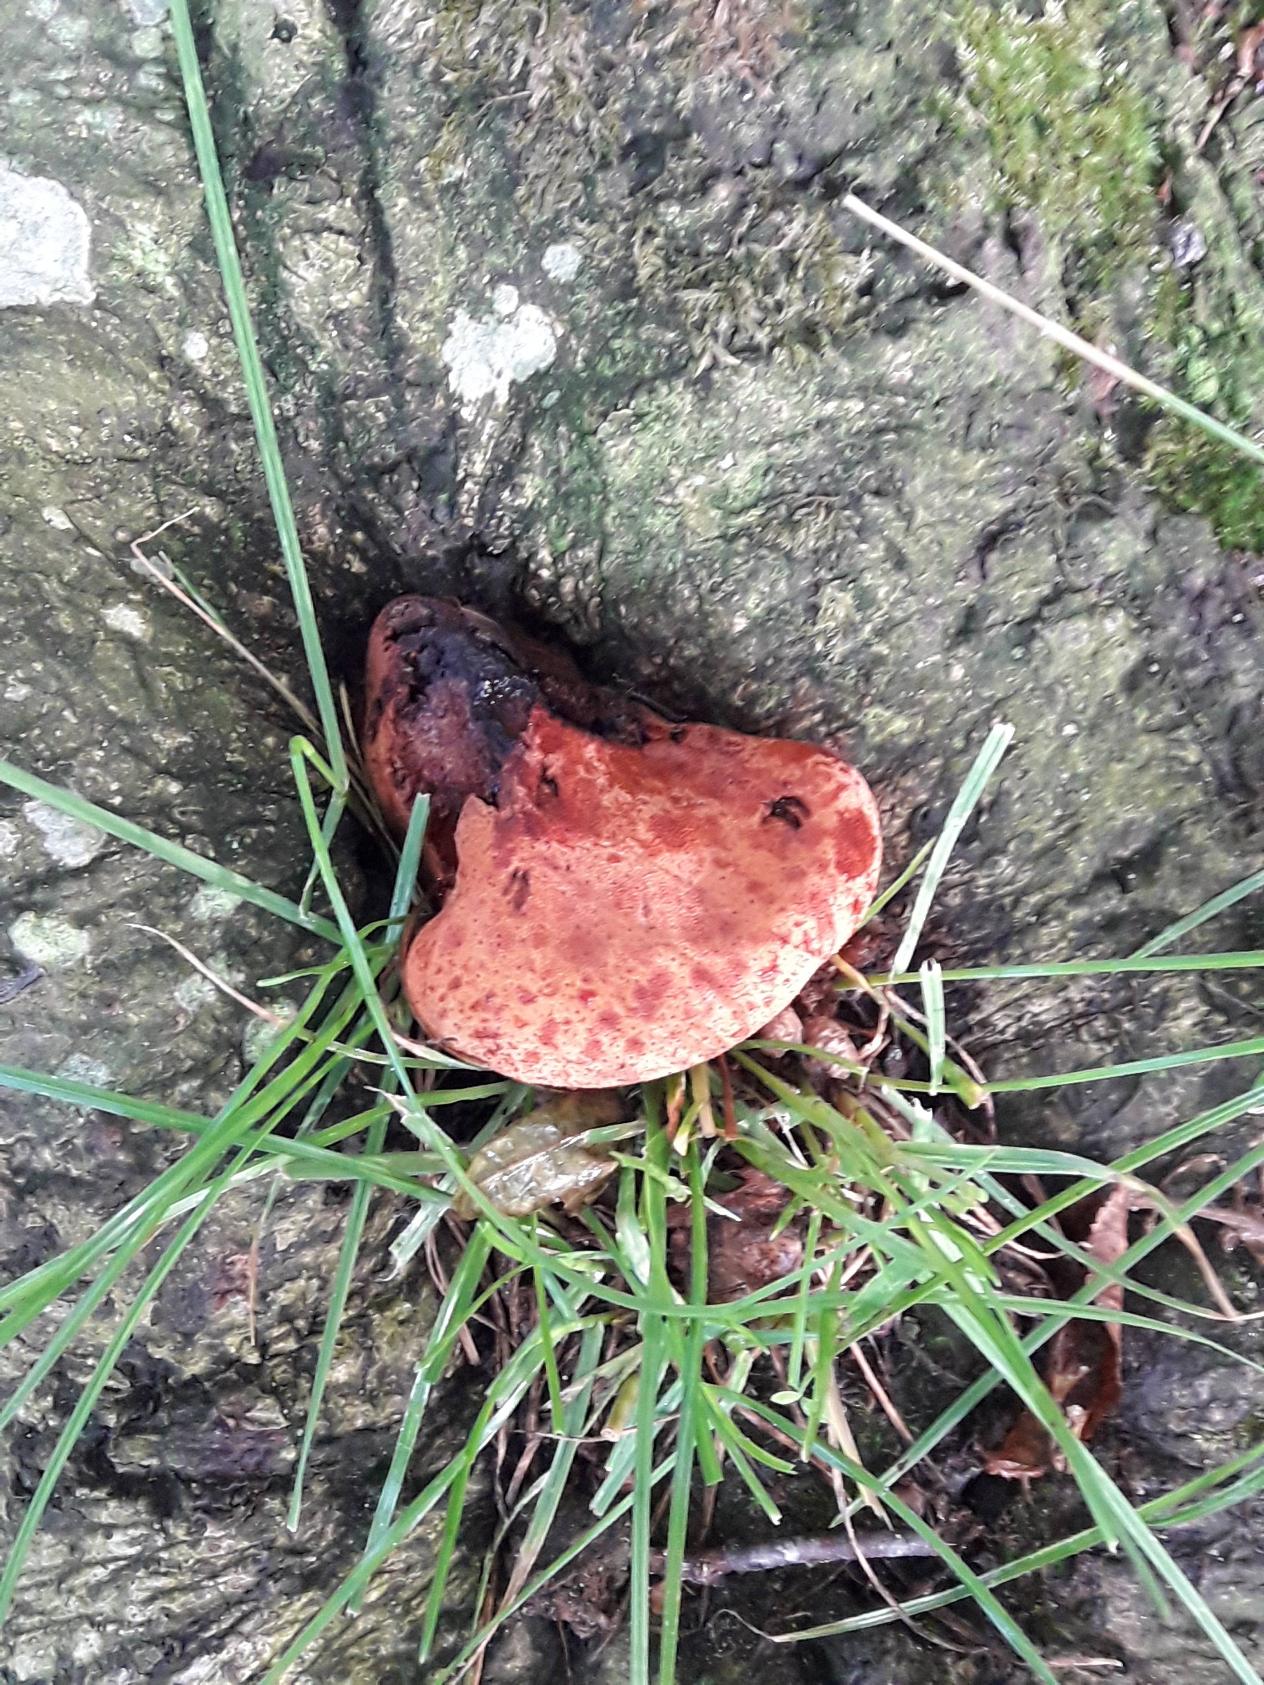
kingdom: Fungi
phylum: Basidiomycota
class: Agaricomycetes
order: Agaricales
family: Fistulinaceae
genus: Fistulina
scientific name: Fistulina hepatica
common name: Oksetunge
